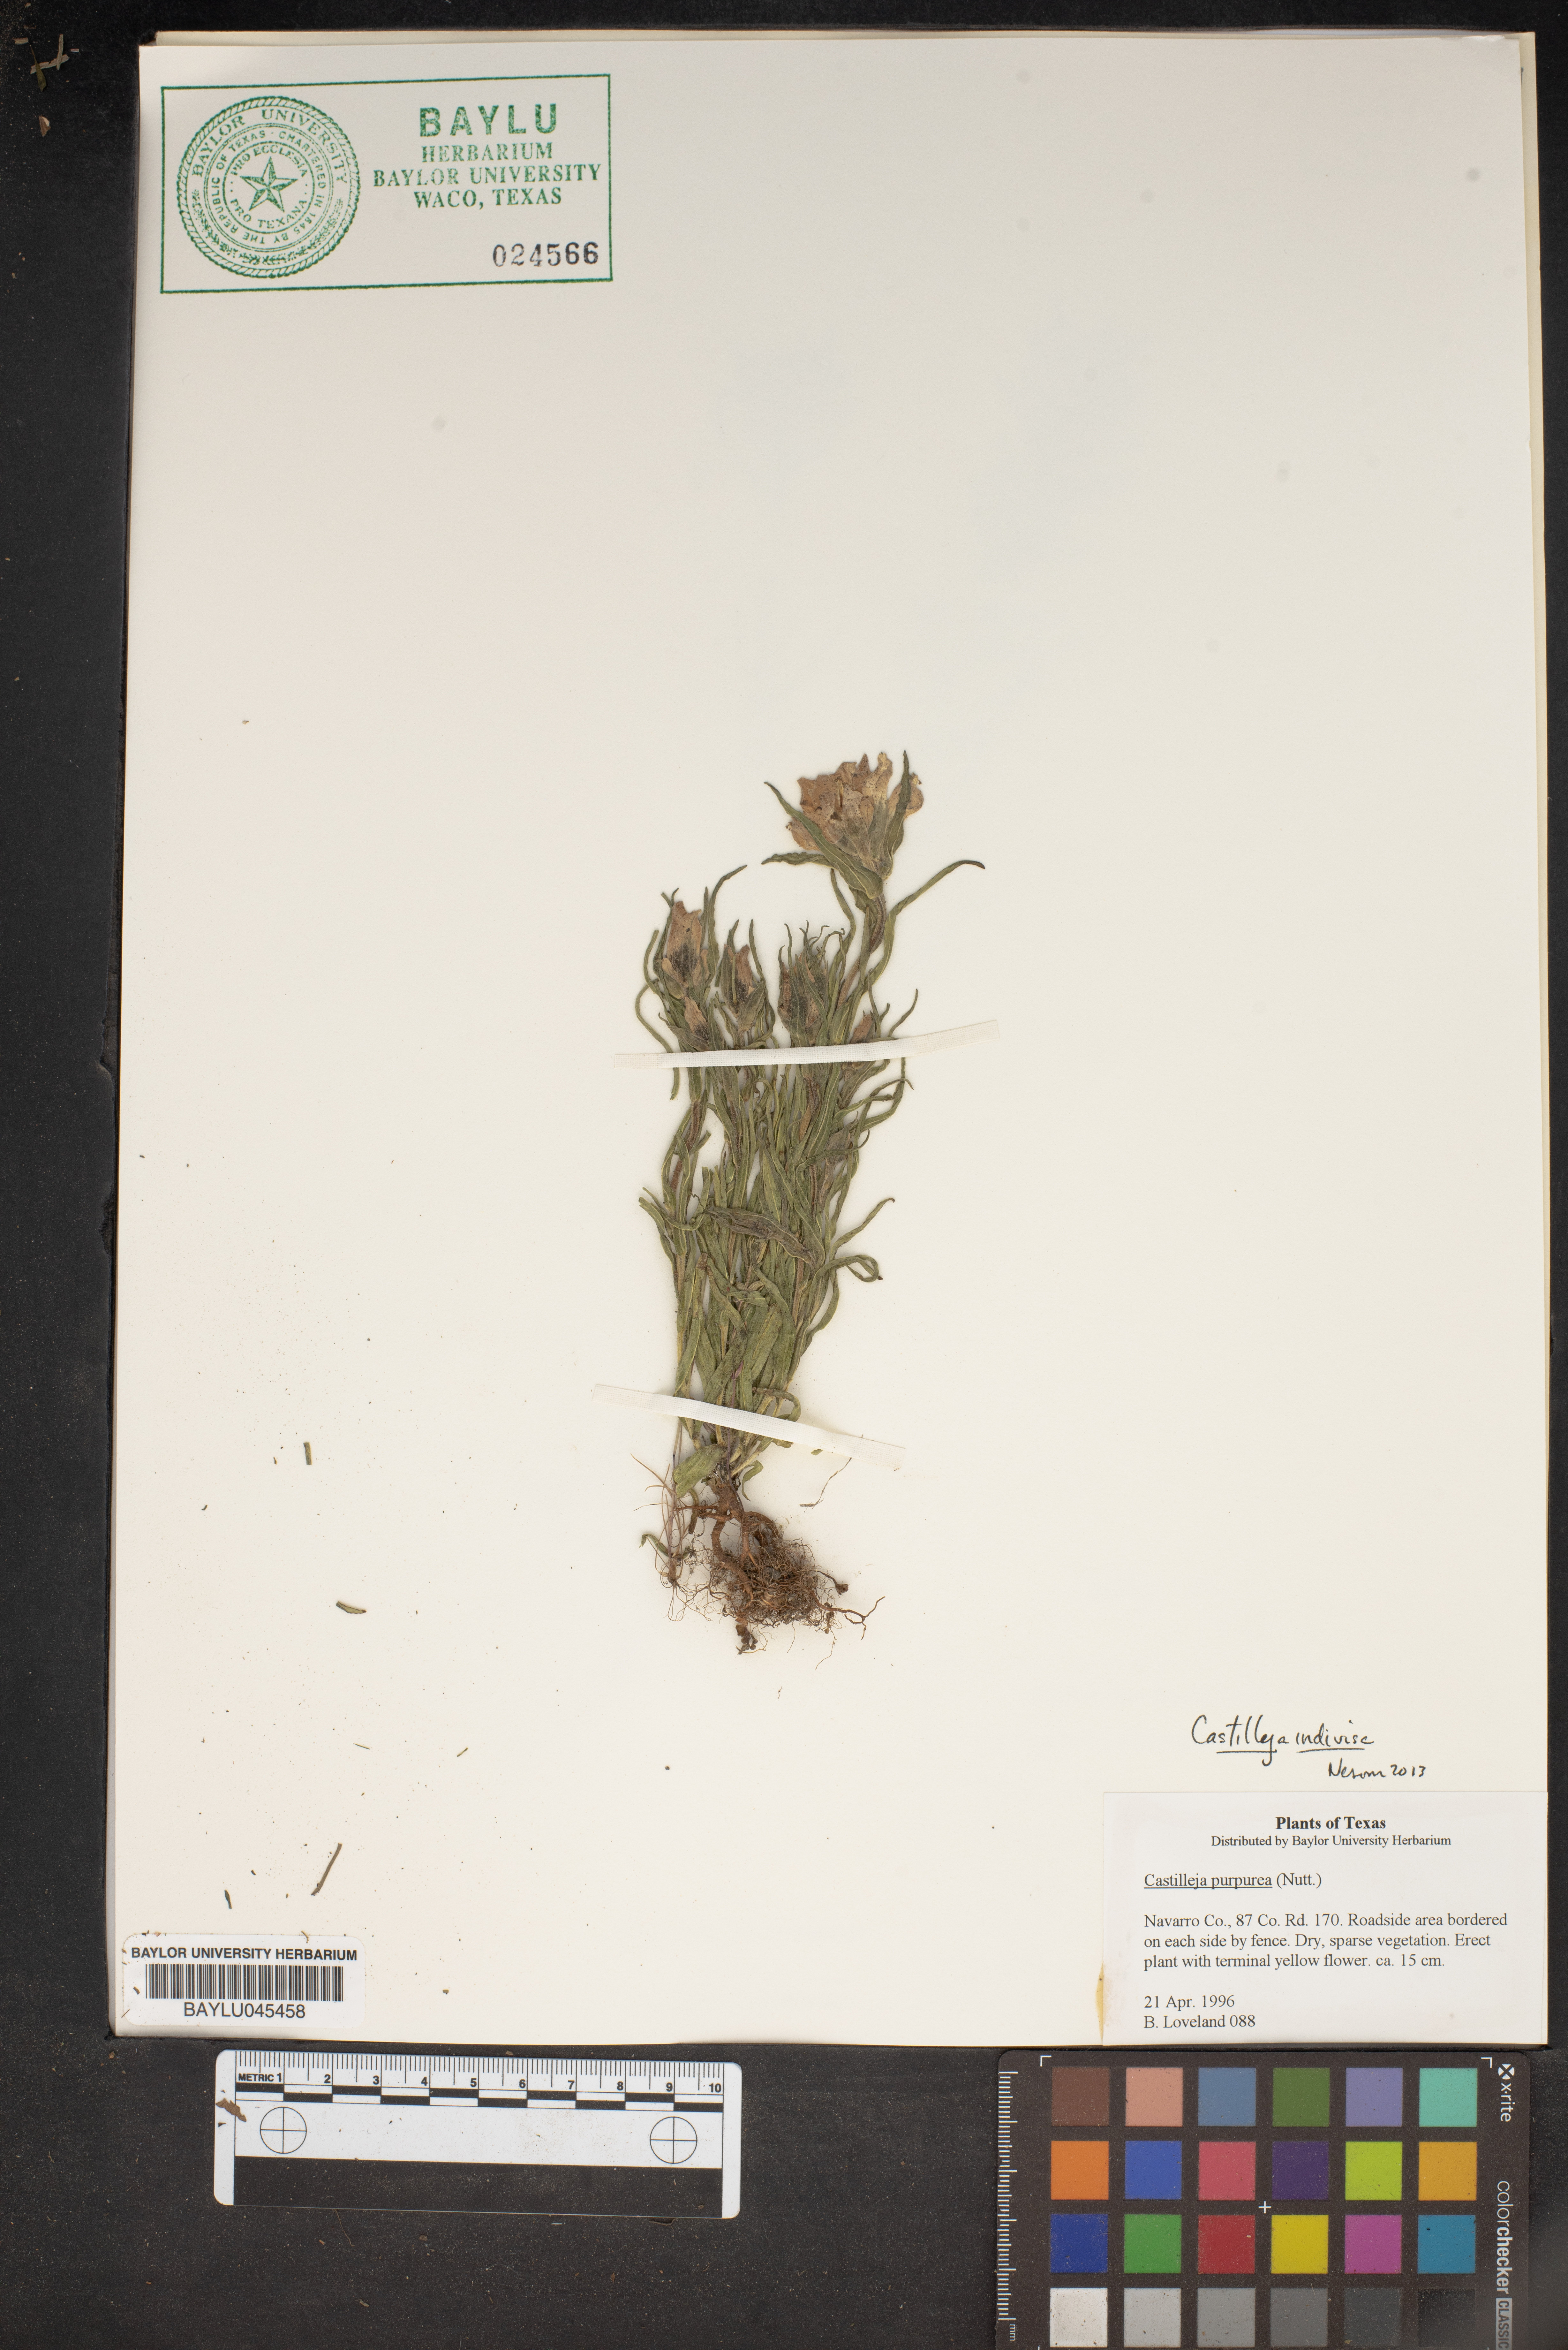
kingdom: Plantae
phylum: Tracheophyta
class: Magnoliopsida
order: Lamiales
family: Orobanchaceae
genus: Castilleja
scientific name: Castilleja purpurea
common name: Plains paintbrush
